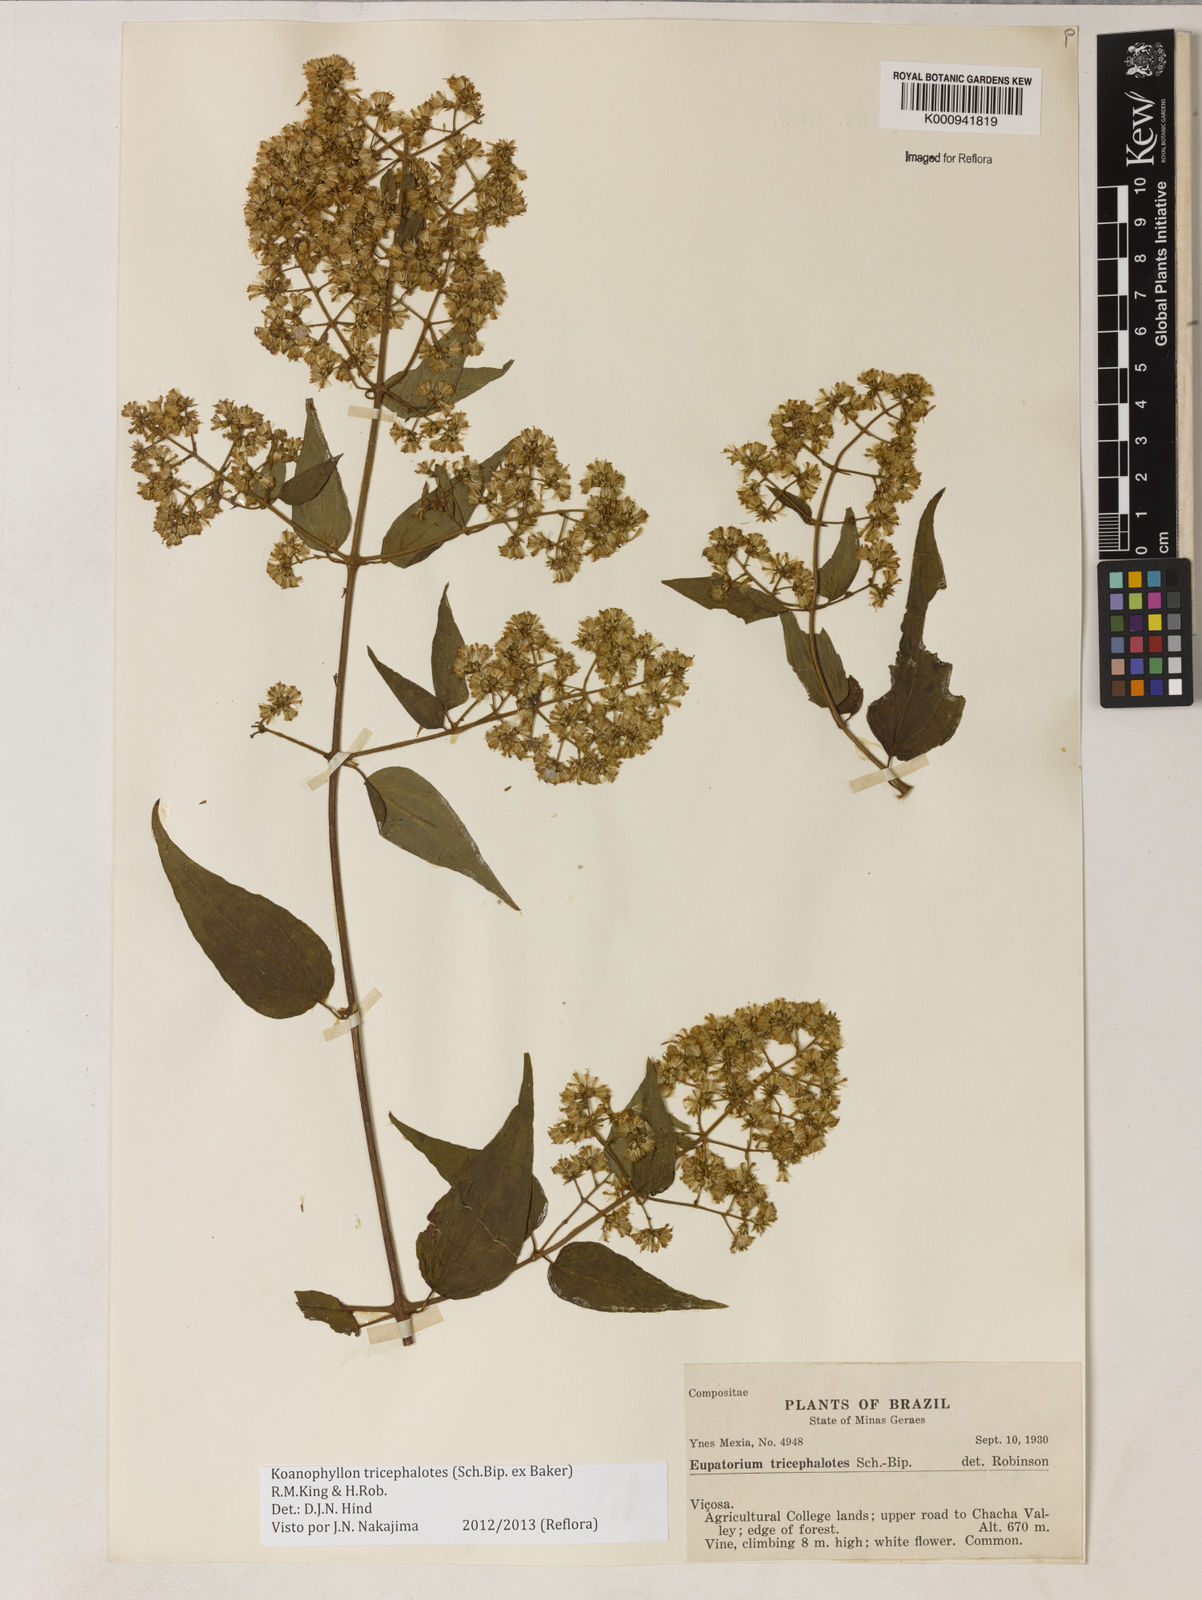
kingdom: Plantae
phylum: Tracheophyta
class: Magnoliopsida
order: Asterales
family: Asteraceae
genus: Koanophyllon
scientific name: Koanophyllon tricephalotes
